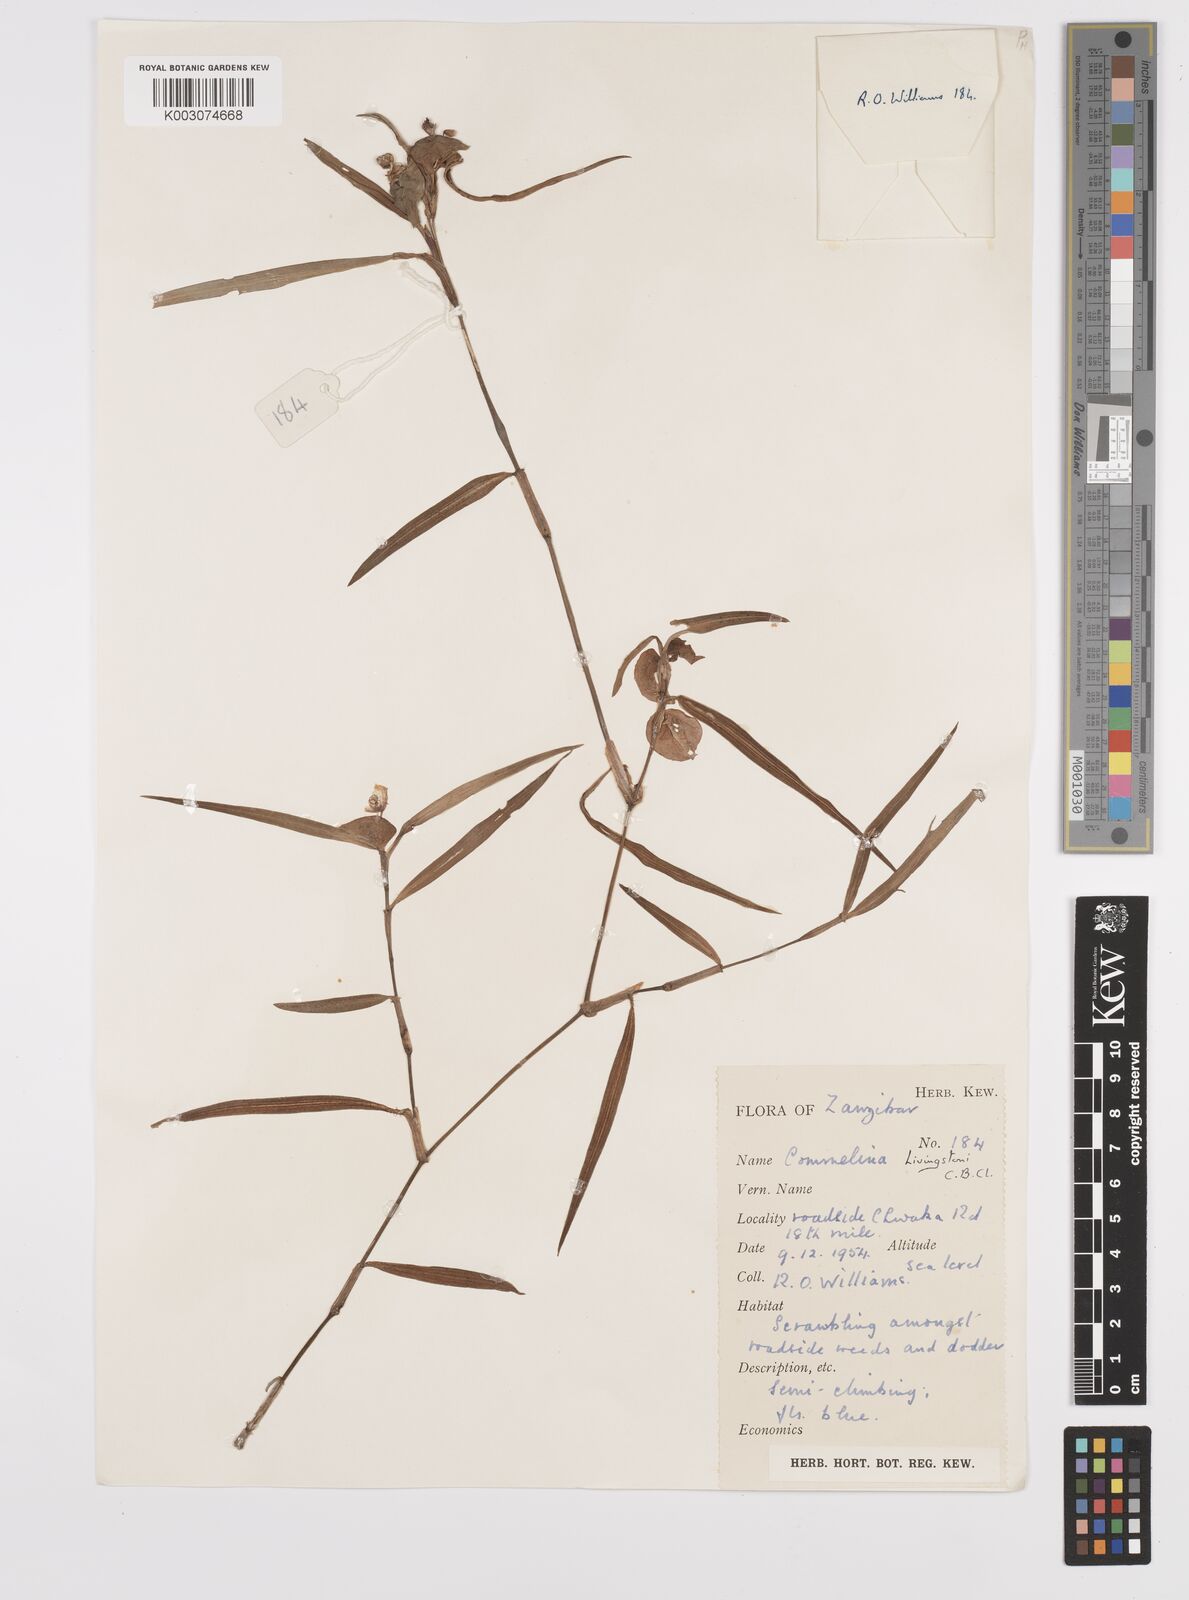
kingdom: Plantae
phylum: Tracheophyta
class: Liliopsida
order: Commelinales
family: Commelinaceae
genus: Commelina
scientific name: Commelina erecta
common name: Blousel blommetjie
